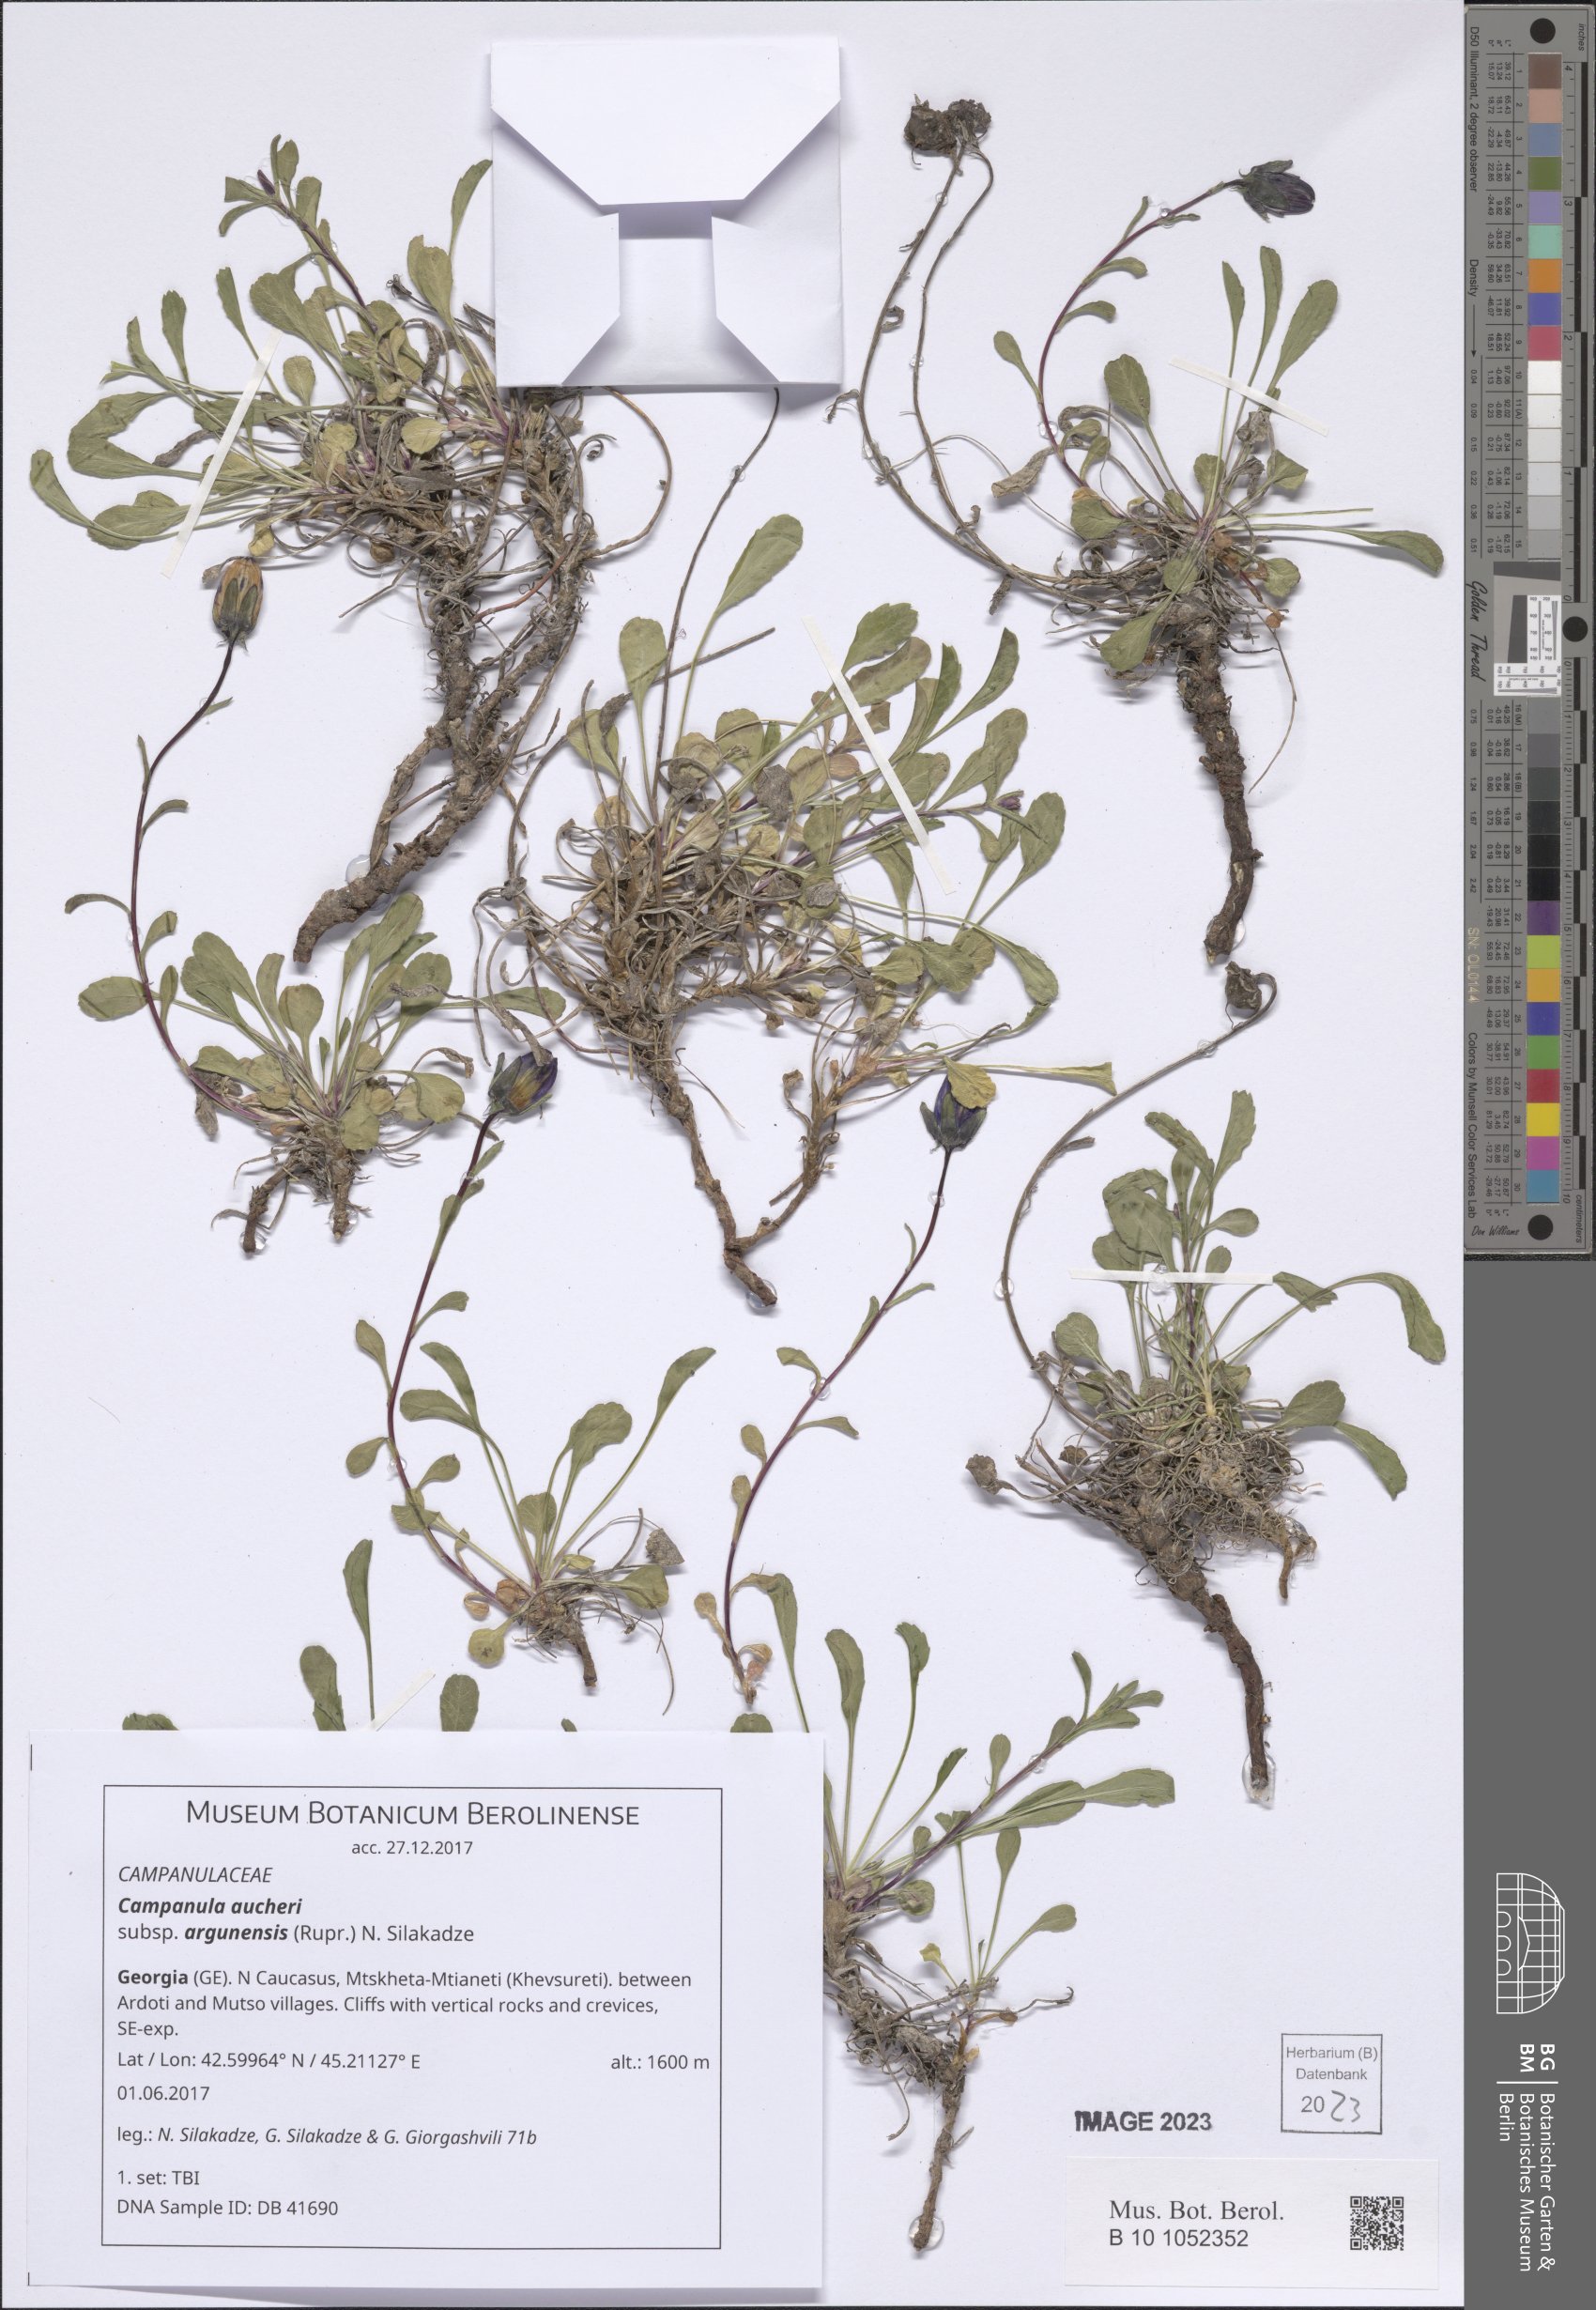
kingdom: Plantae
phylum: Tracheophyta
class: Magnoliopsida
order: Asterales
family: Campanulaceae
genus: Campanula
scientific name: Campanula saxifraga
